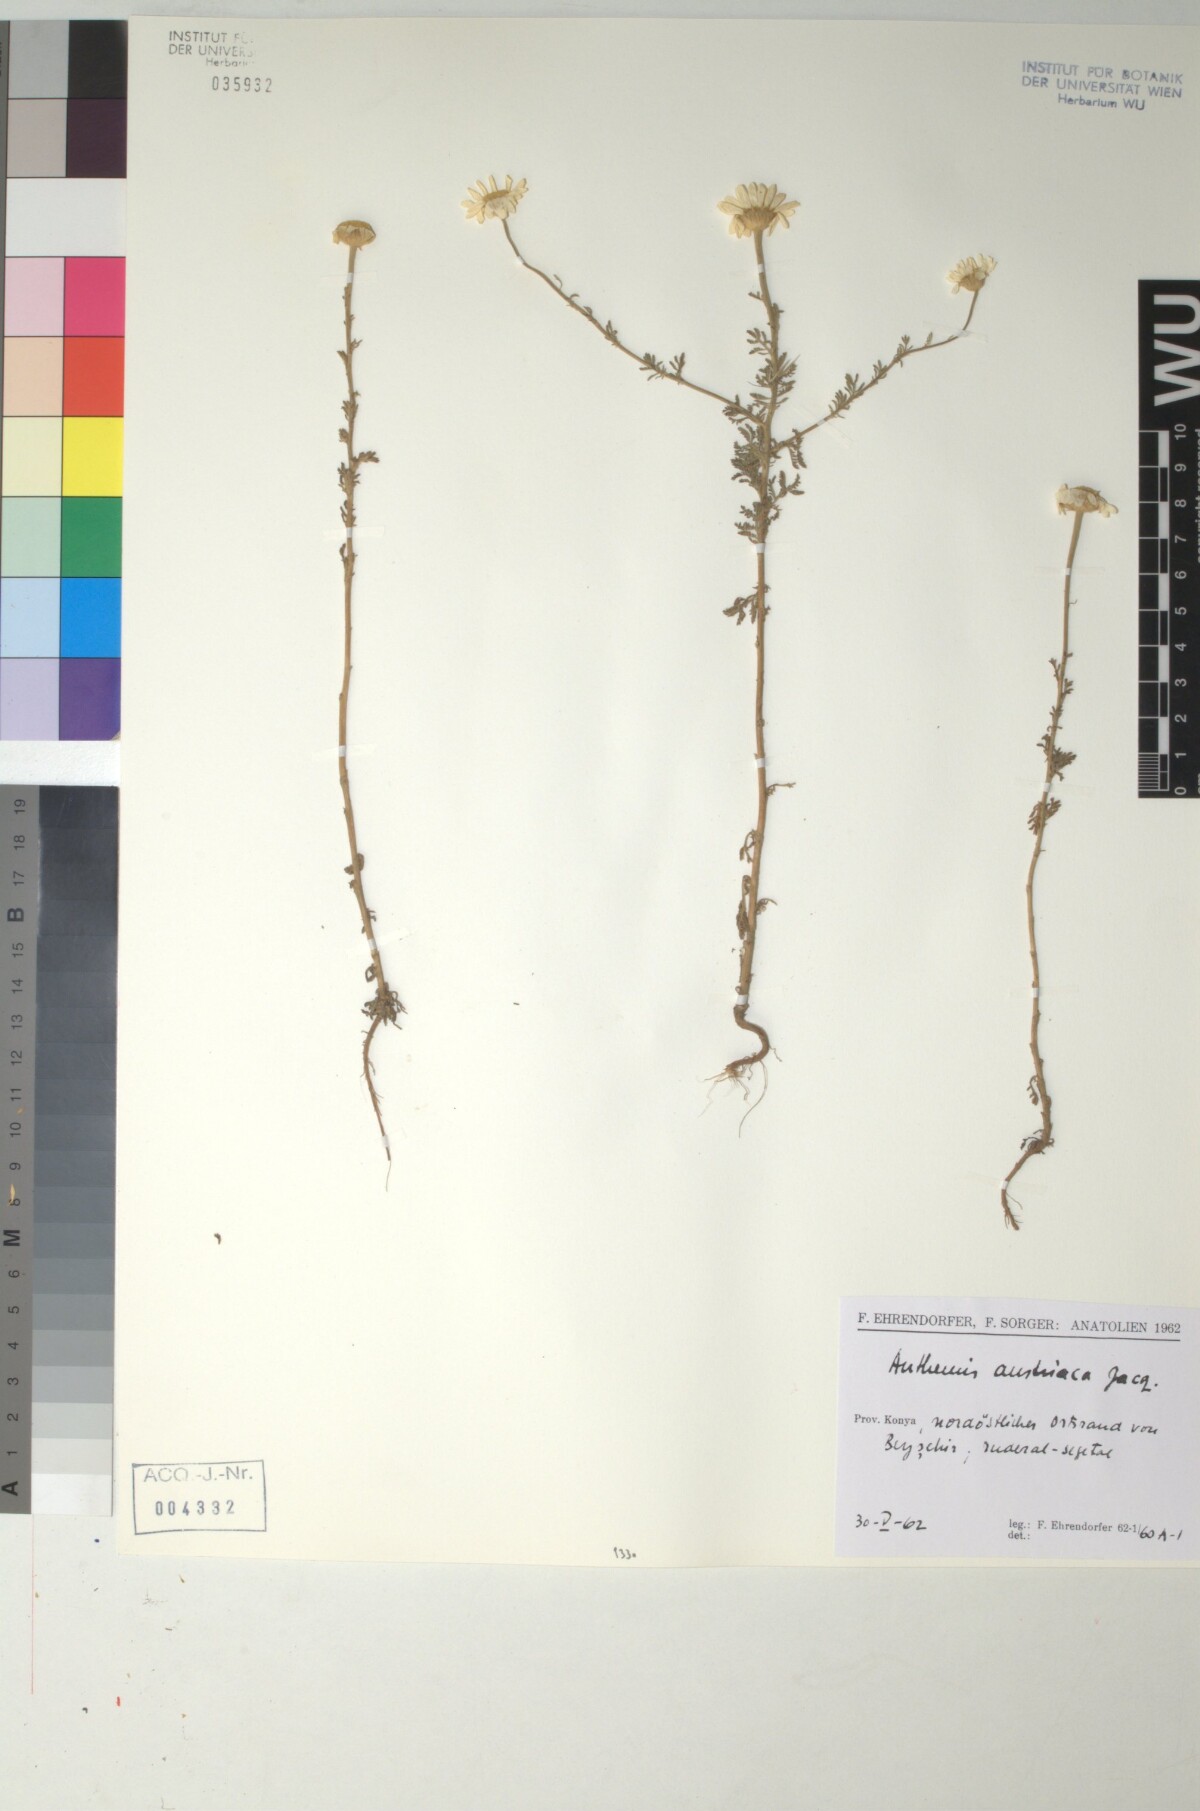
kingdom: Plantae
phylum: Tracheophyta
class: Magnoliopsida
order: Asterales
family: Asteraceae
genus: Cota
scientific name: Cota austriaca
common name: Austrian chamomile
